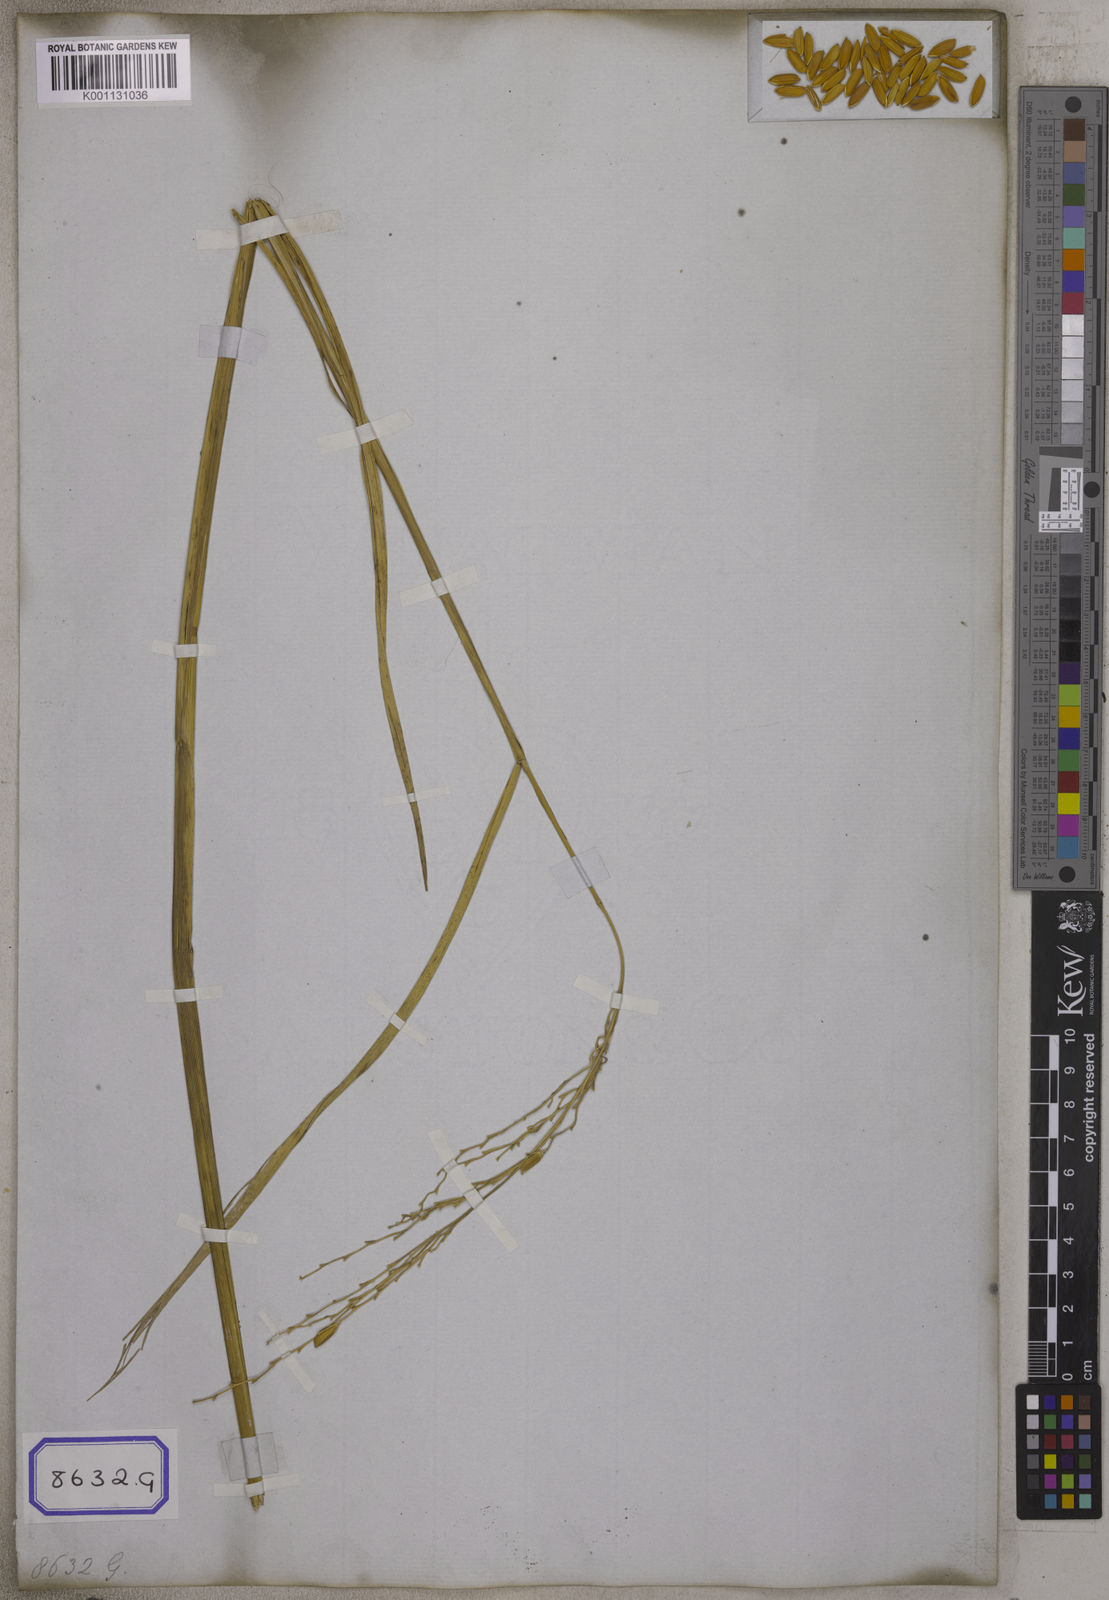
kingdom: Plantae
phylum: Tracheophyta
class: Liliopsida
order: Poales
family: Poaceae
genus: Oryza
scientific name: Oryza sativa
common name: Rice
